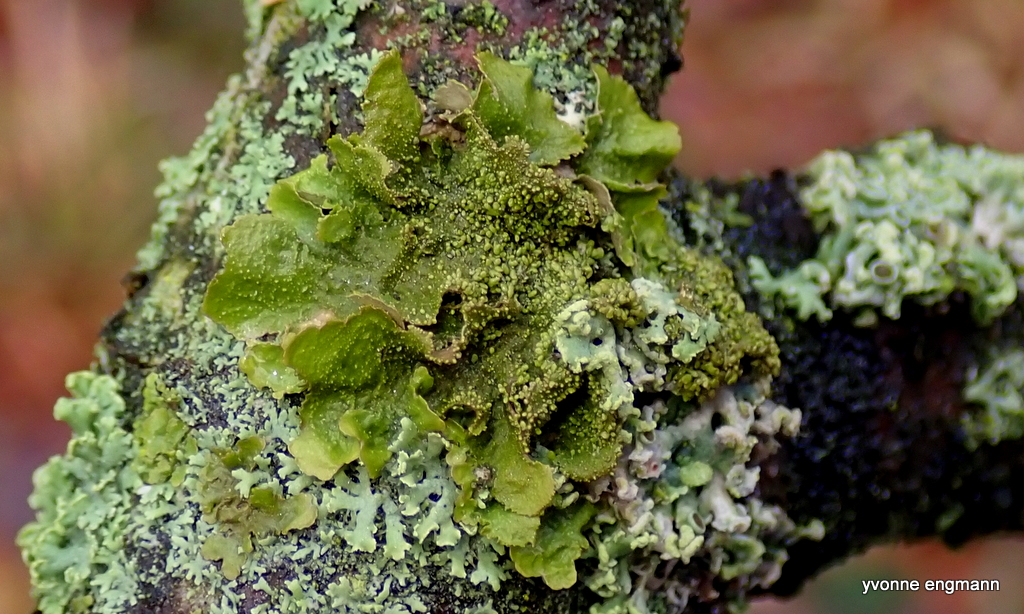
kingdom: Fungi
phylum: Ascomycota
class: Lecanoromycetes
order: Lecanorales
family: Parmeliaceae
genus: Melanohalea
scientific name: Melanohalea exasperatula
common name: kølle-skållav
